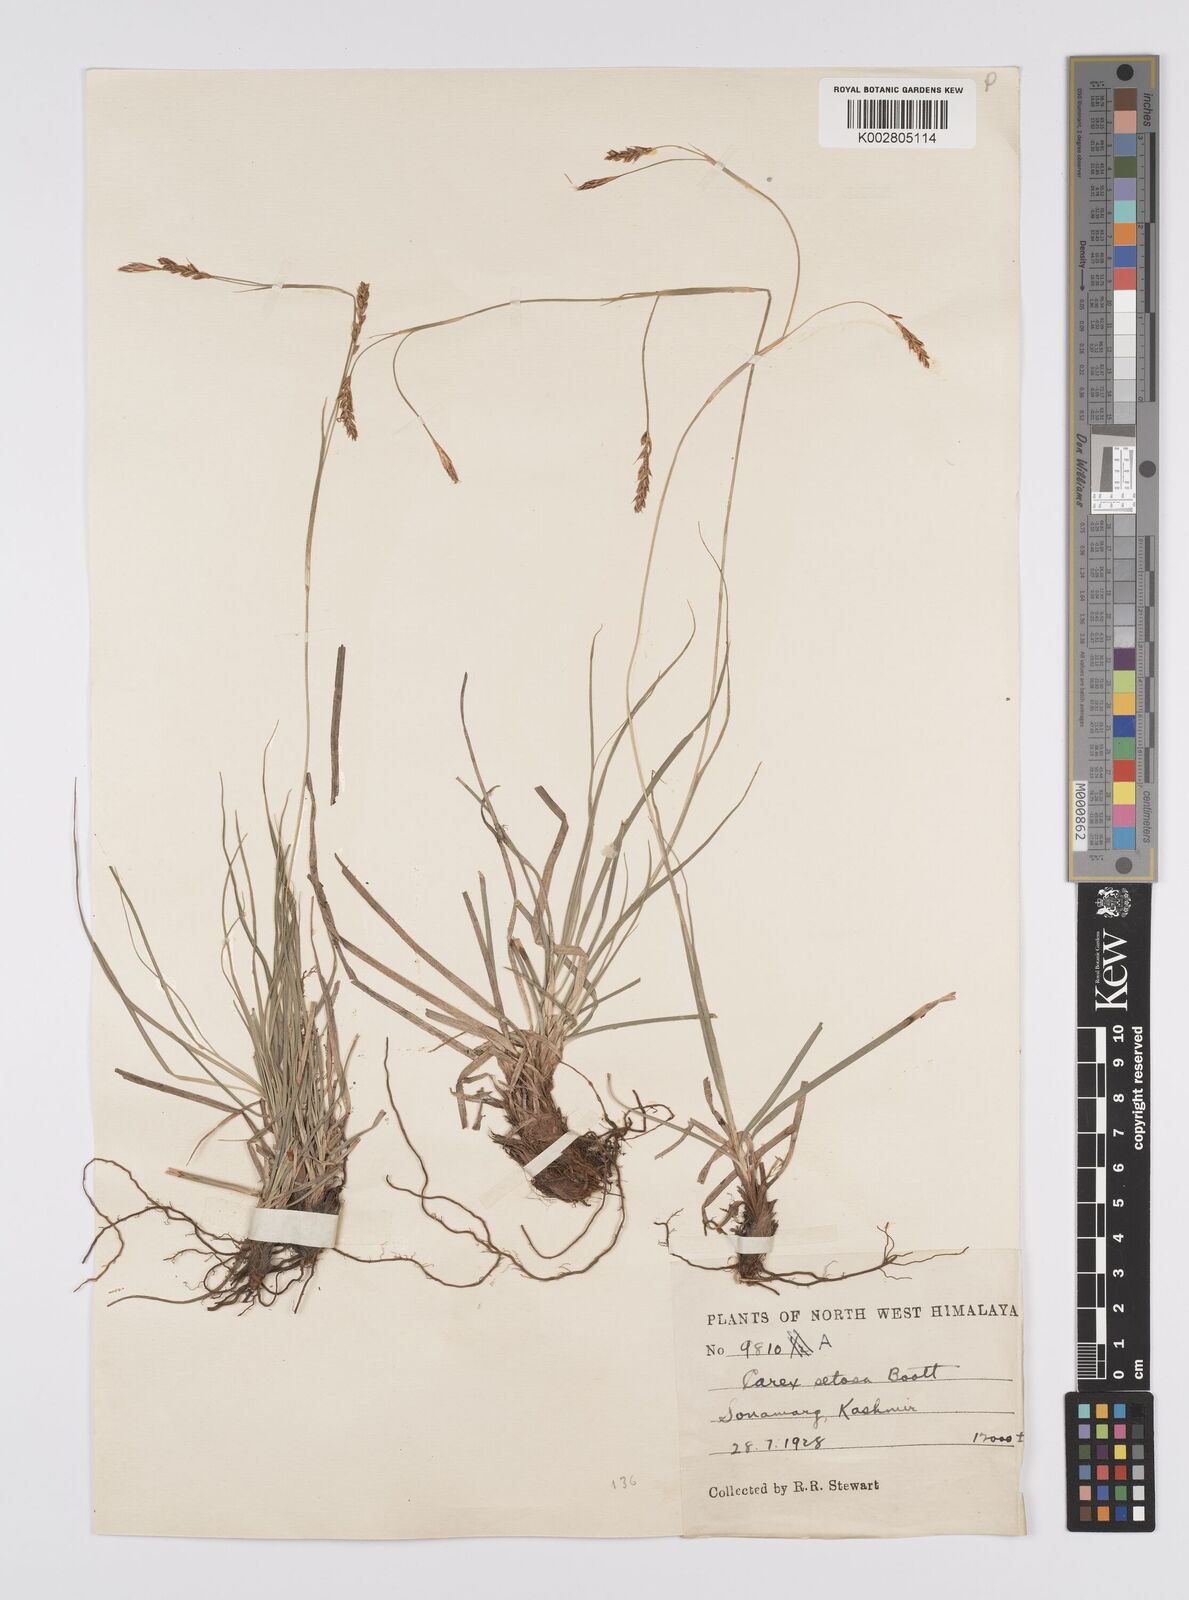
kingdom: Plantae
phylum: Tracheophyta
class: Liliopsida
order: Poales
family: Cyperaceae
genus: Carex
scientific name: Carex setosa
